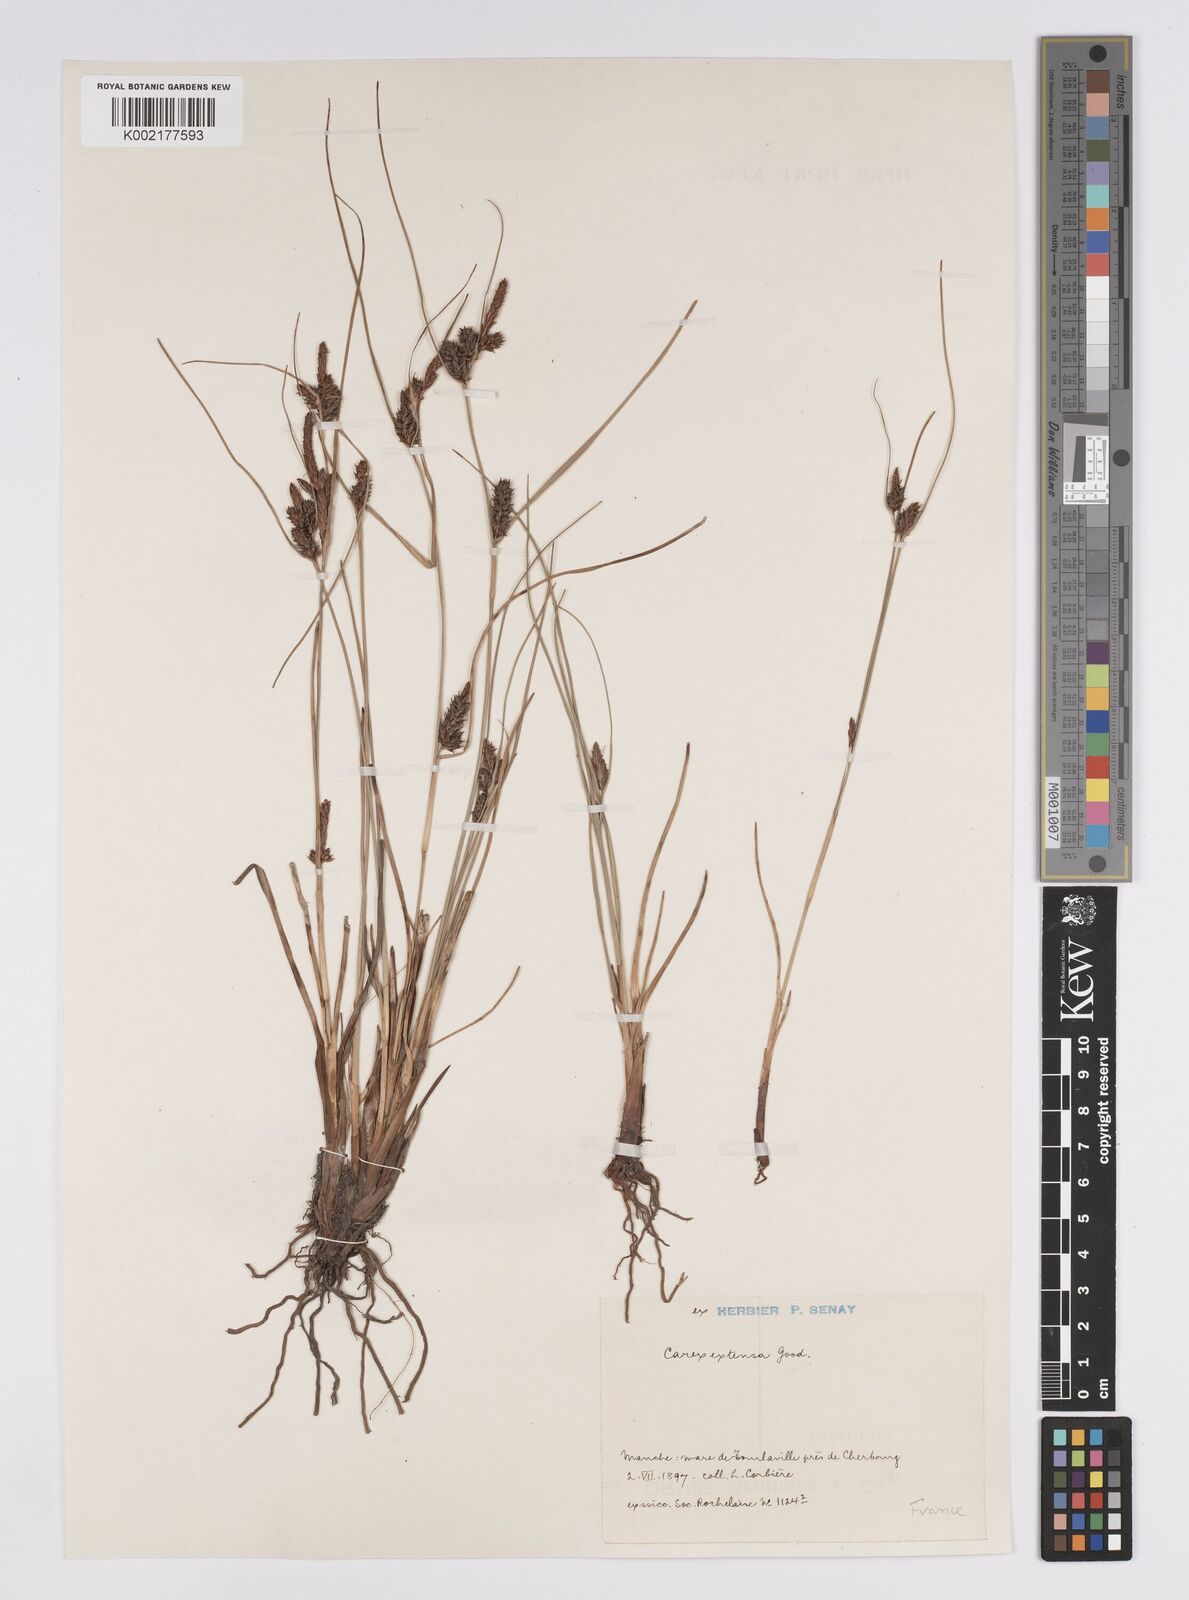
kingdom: Plantae
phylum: Tracheophyta
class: Liliopsida
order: Poales
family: Cyperaceae
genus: Carex
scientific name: Carex extensa
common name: Long-bracted sedge
